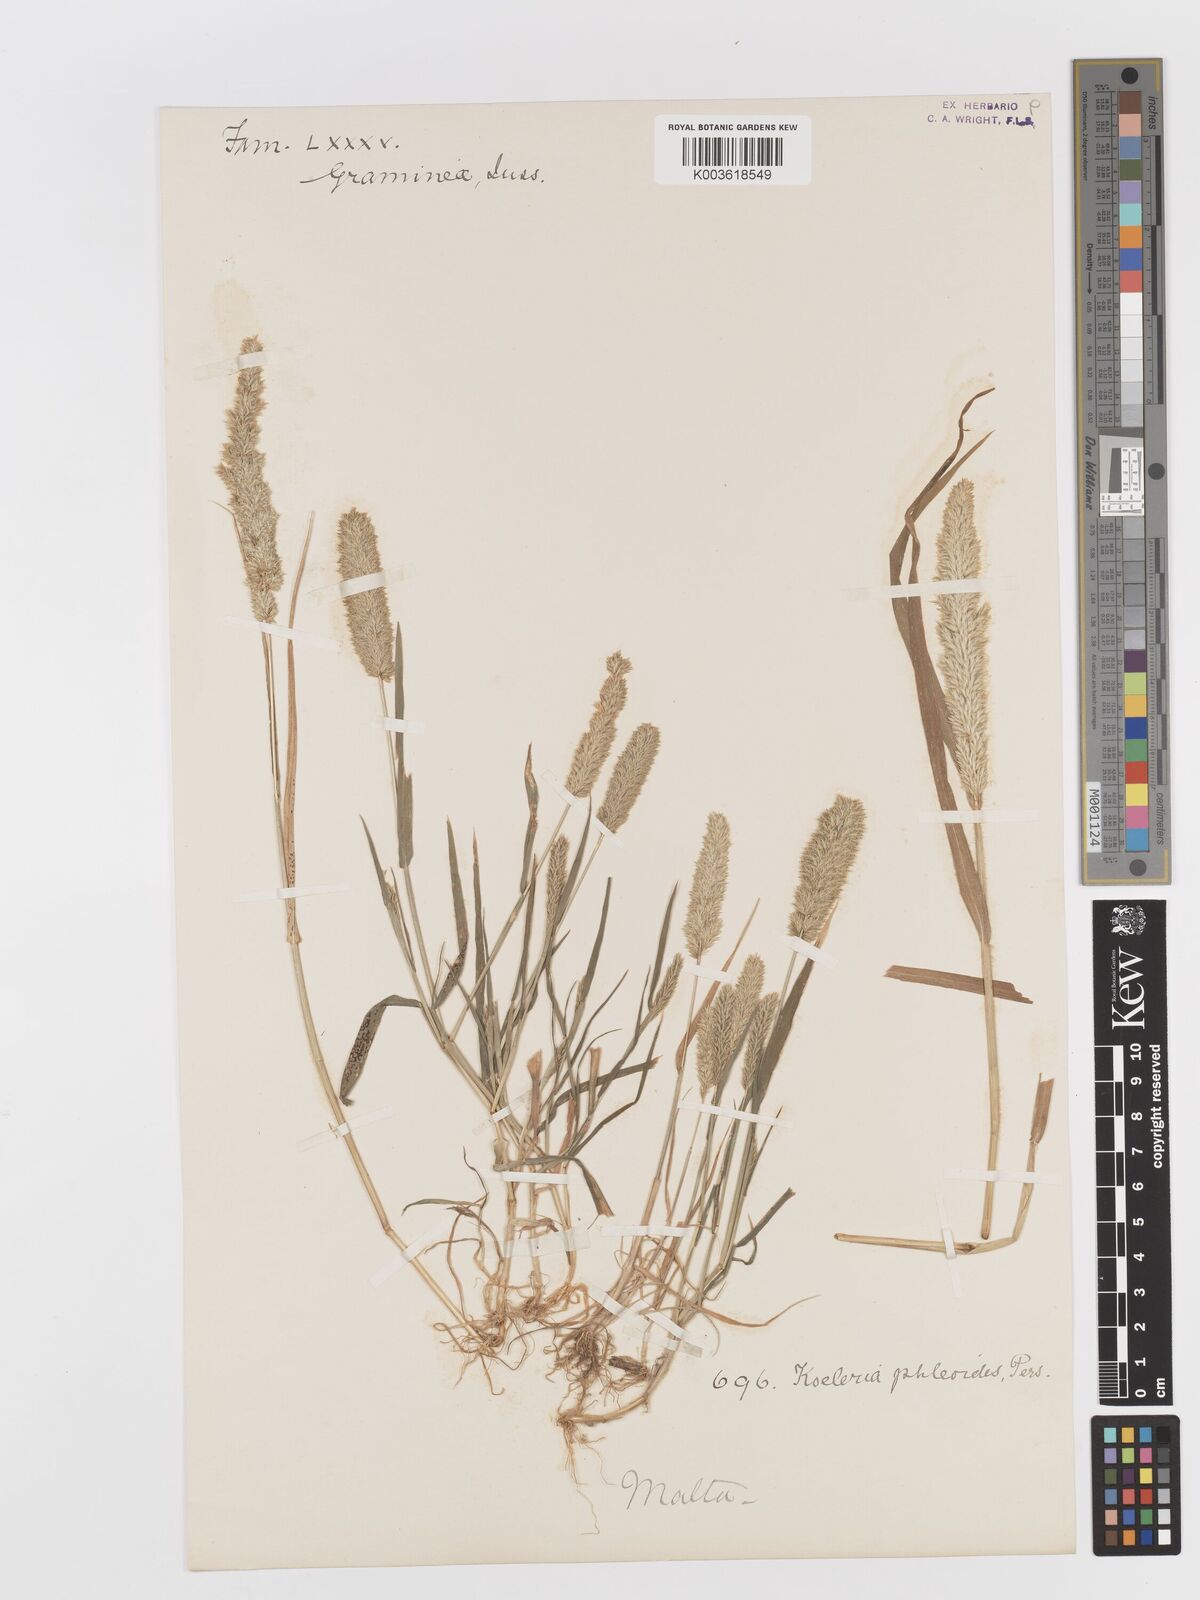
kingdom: Plantae
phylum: Tracheophyta
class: Liliopsida
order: Poales
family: Poaceae
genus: Rostraria
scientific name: Rostraria cristata
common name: Mediterranean hair-grass
